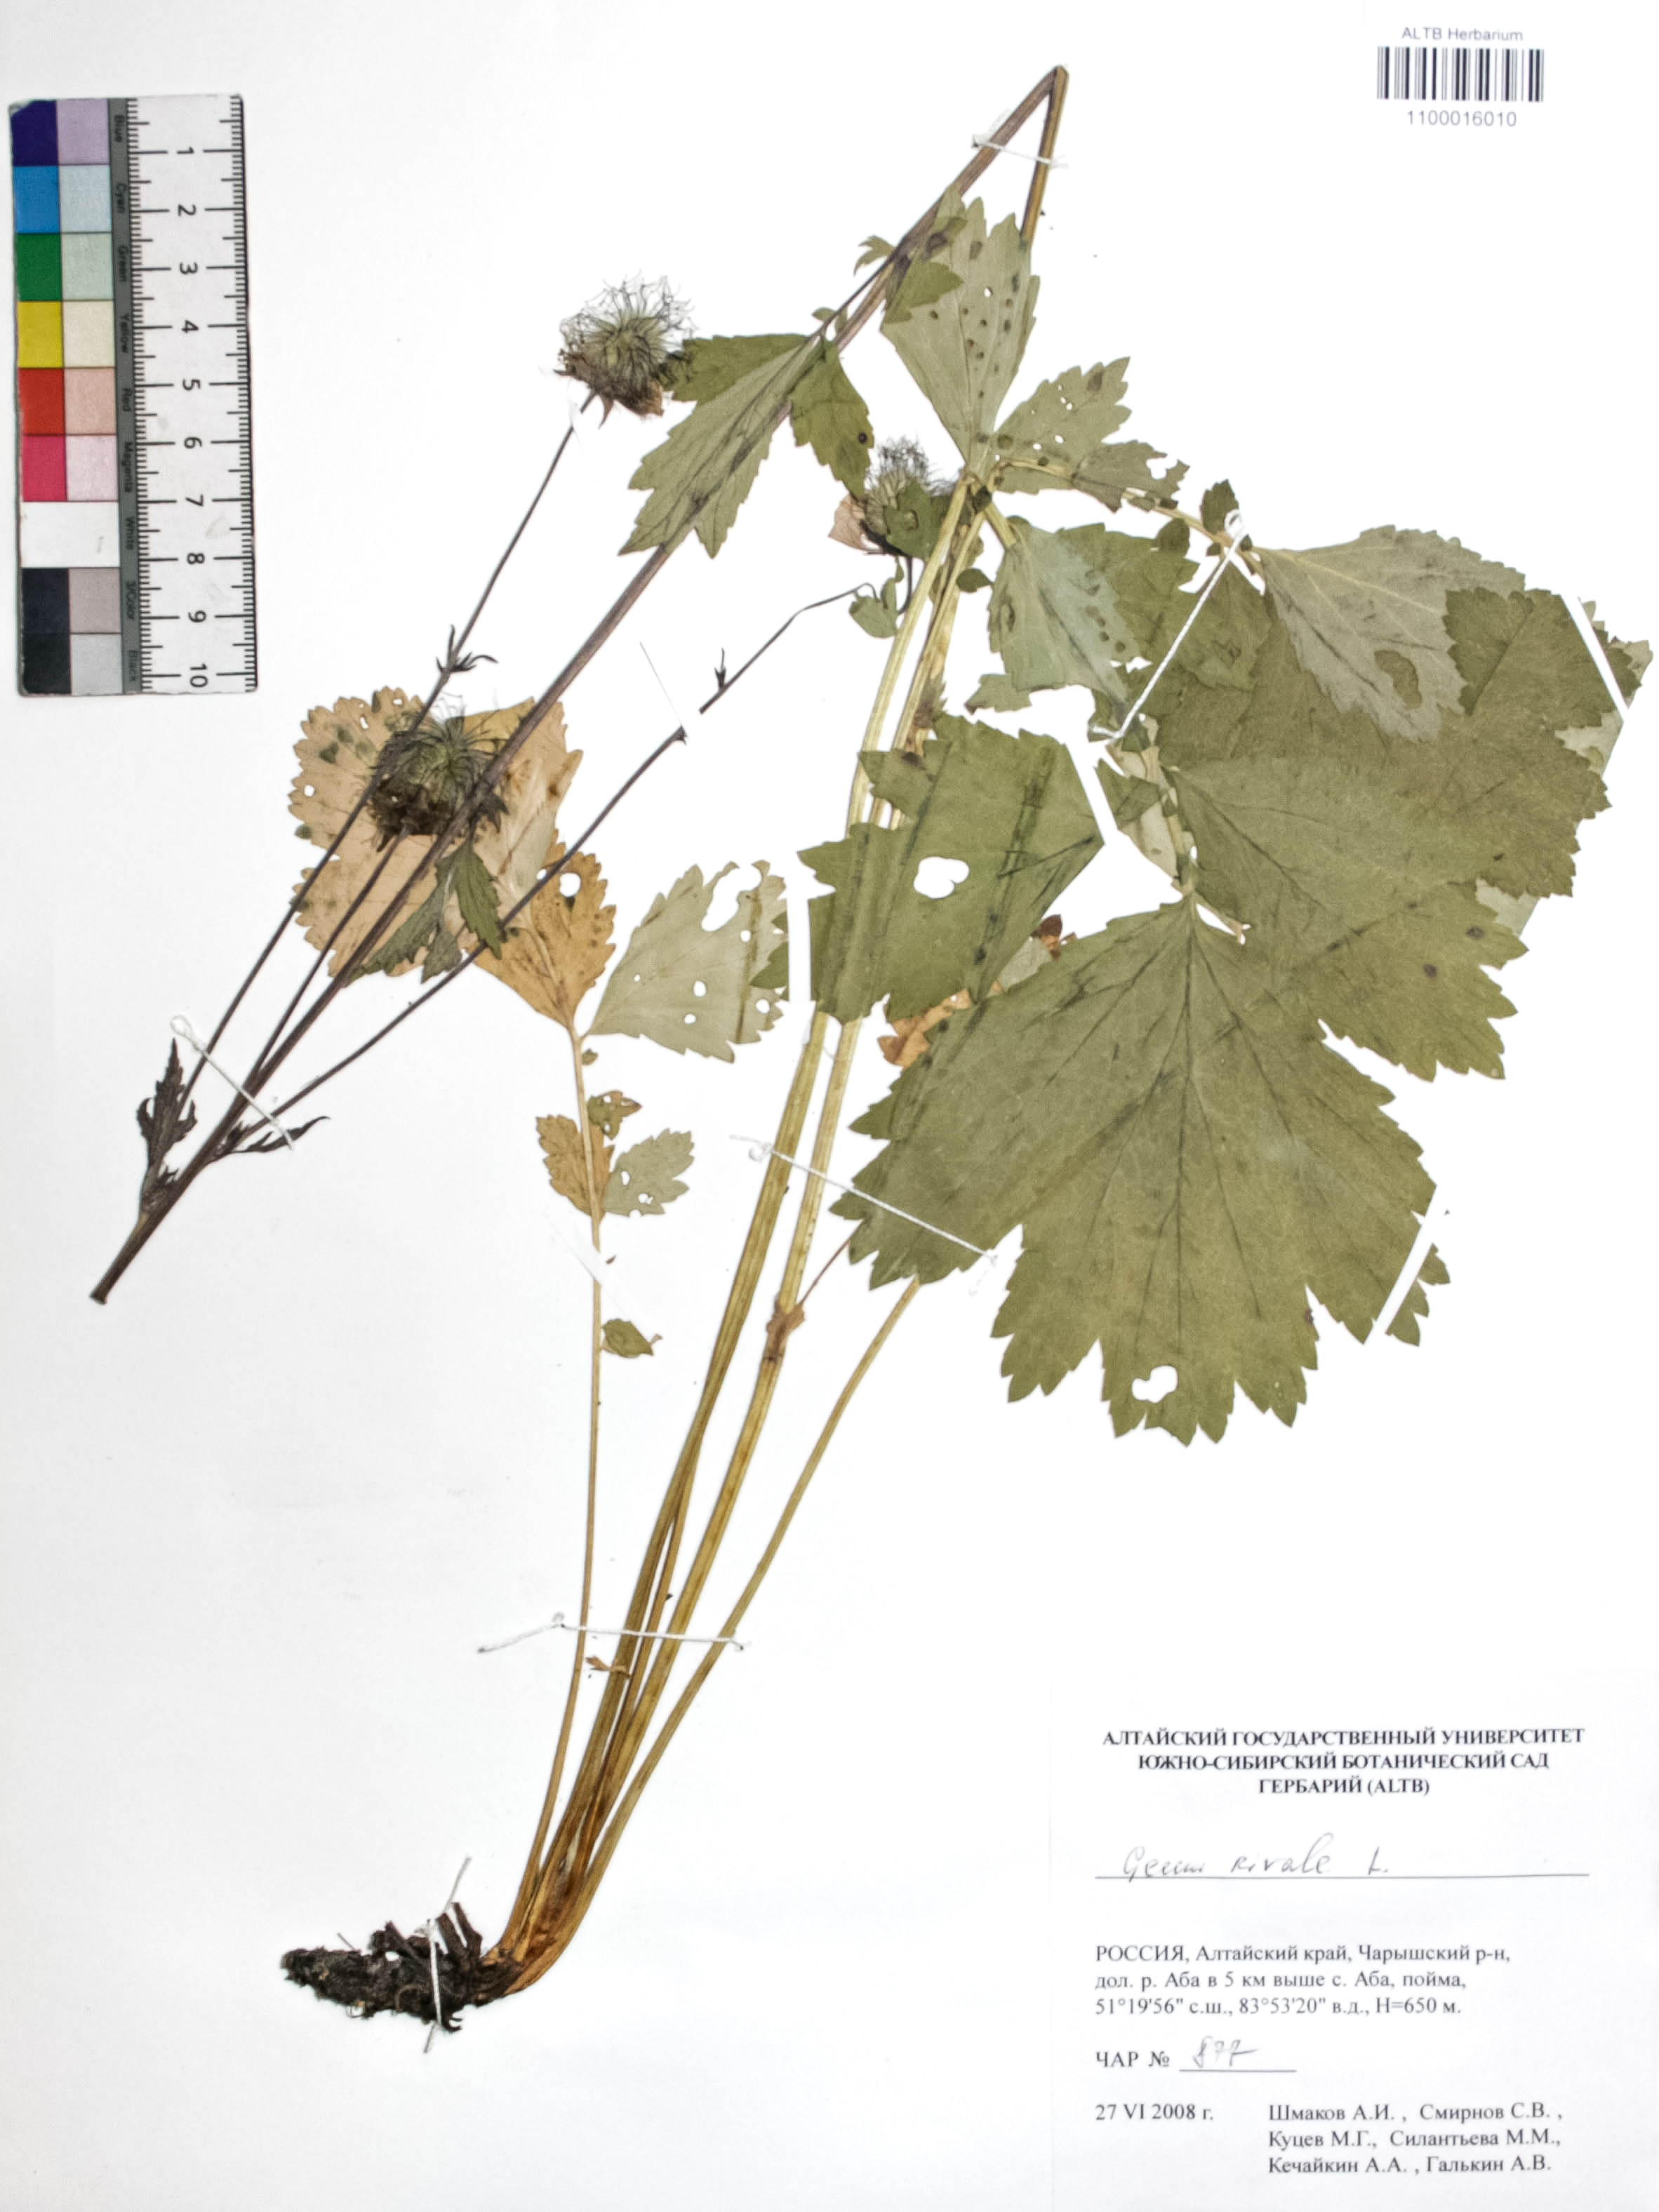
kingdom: Plantae
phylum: Tracheophyta
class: Magnoliopsida
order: Rosales
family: Rosaceae
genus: Geum
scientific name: Geum rivale
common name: Water avens
